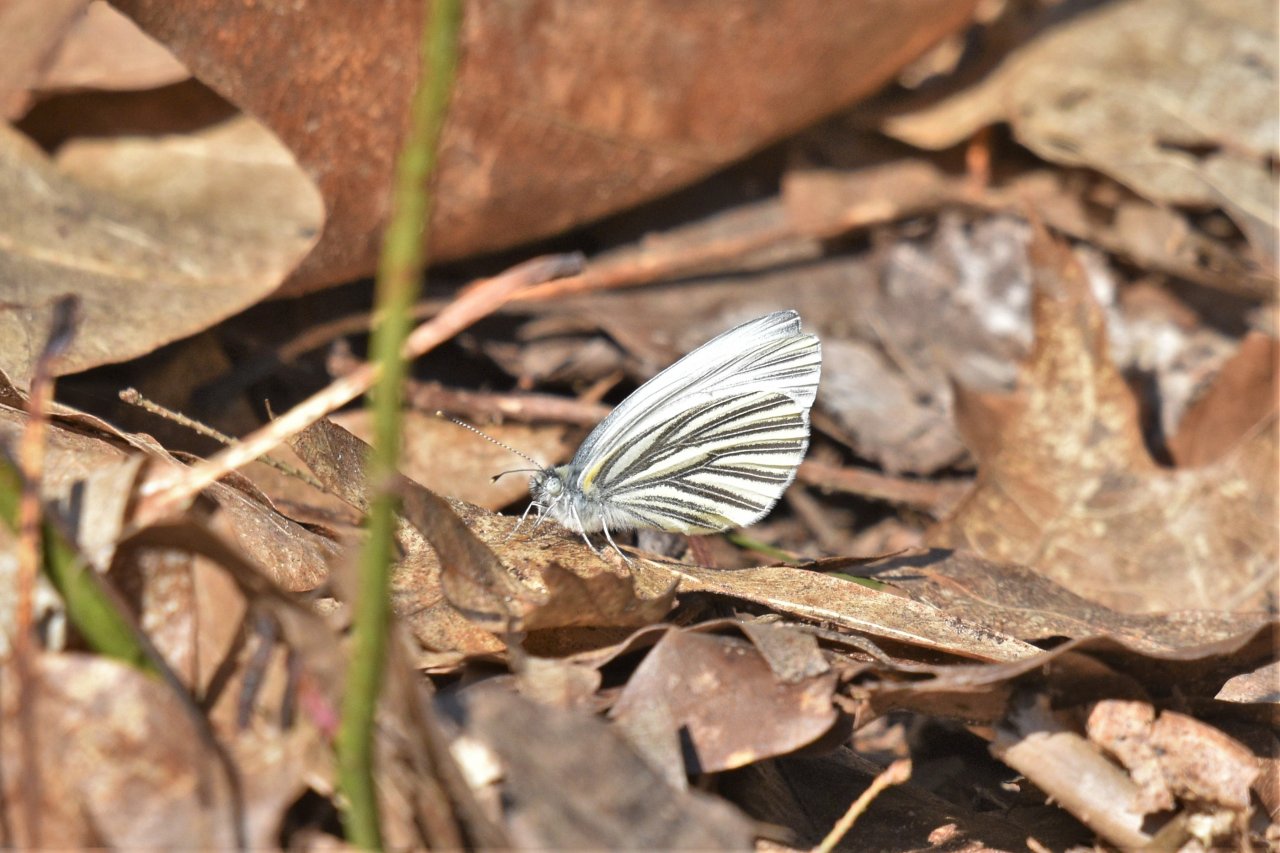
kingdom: Animalia
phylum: Arthropoda
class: Insecta
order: Lepidoptera
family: Pieridae
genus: Pieris
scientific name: Pieris oleracea
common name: Mustard White
